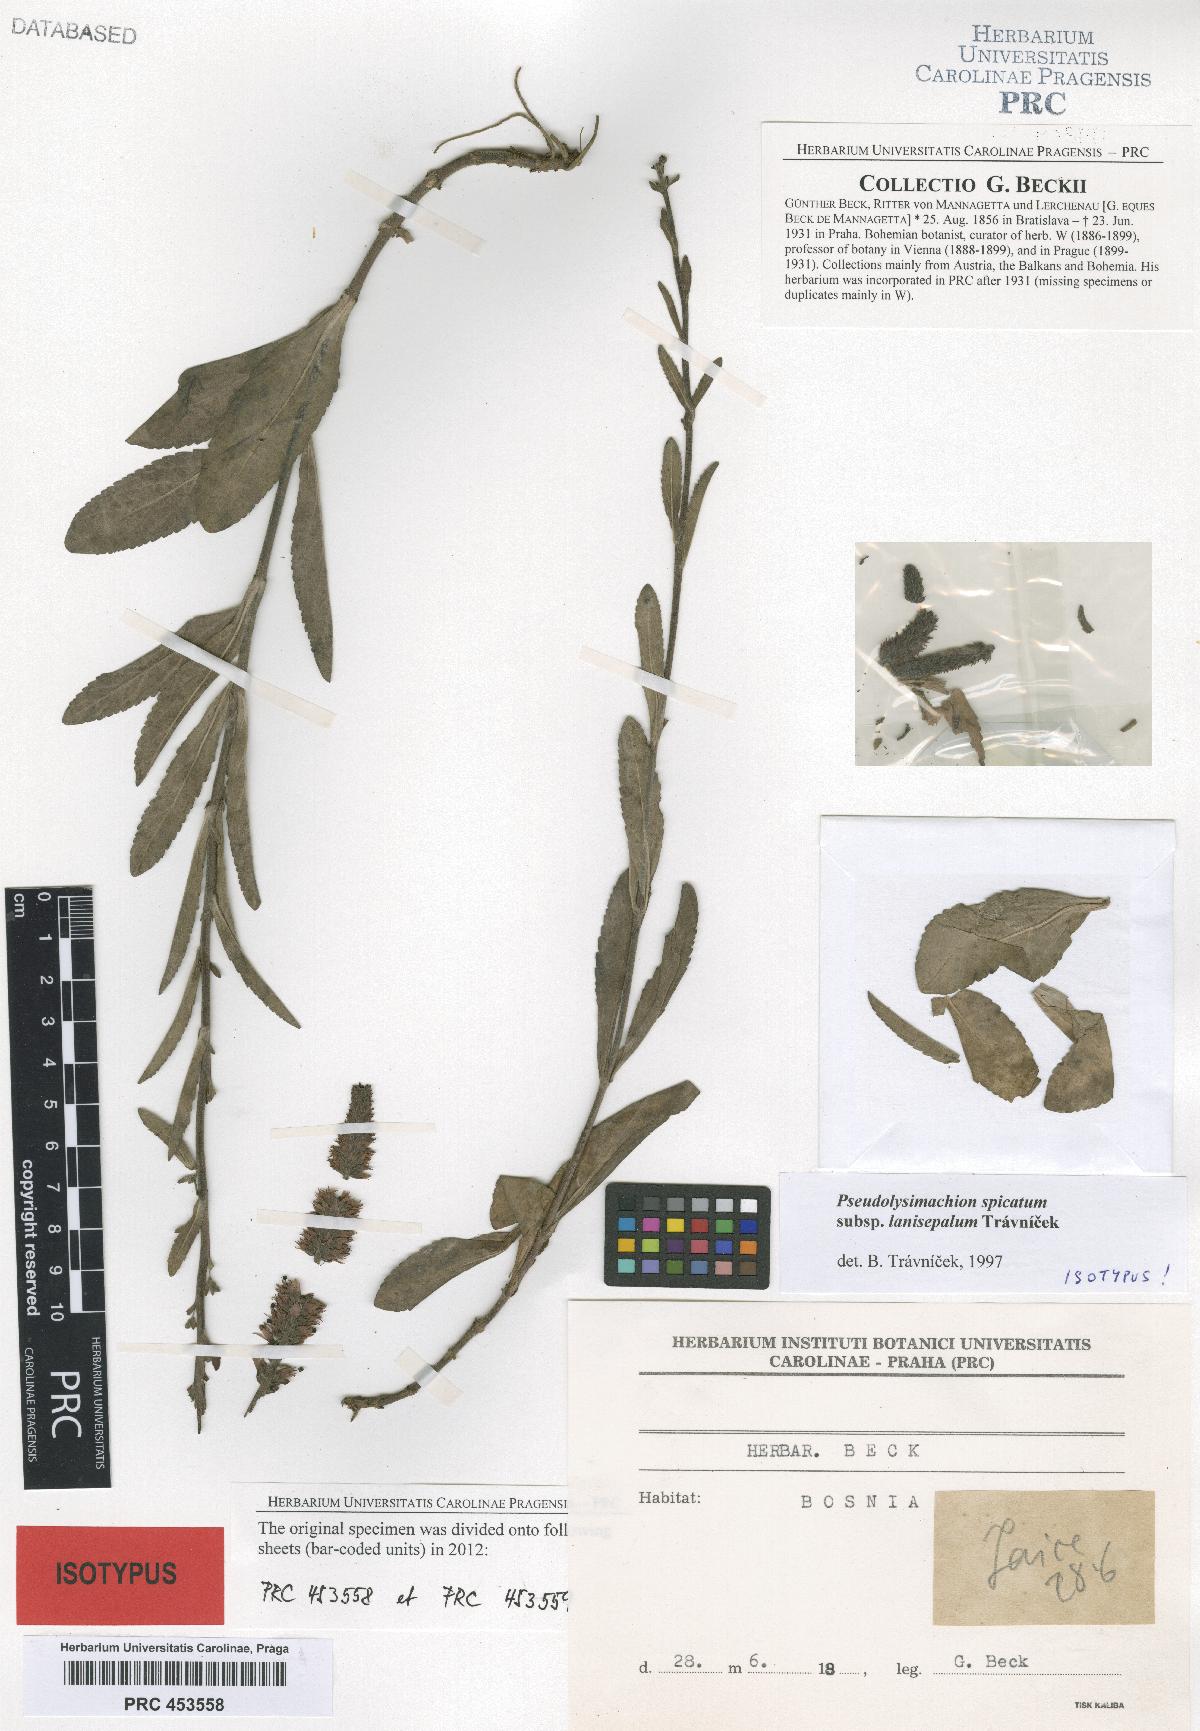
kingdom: Plantae
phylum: Tracheophyta
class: Magnoliopsida
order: Lamiales
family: Plantaginaceae
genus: Veronica
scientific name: Veronica spicata
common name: Spiked speedwell
